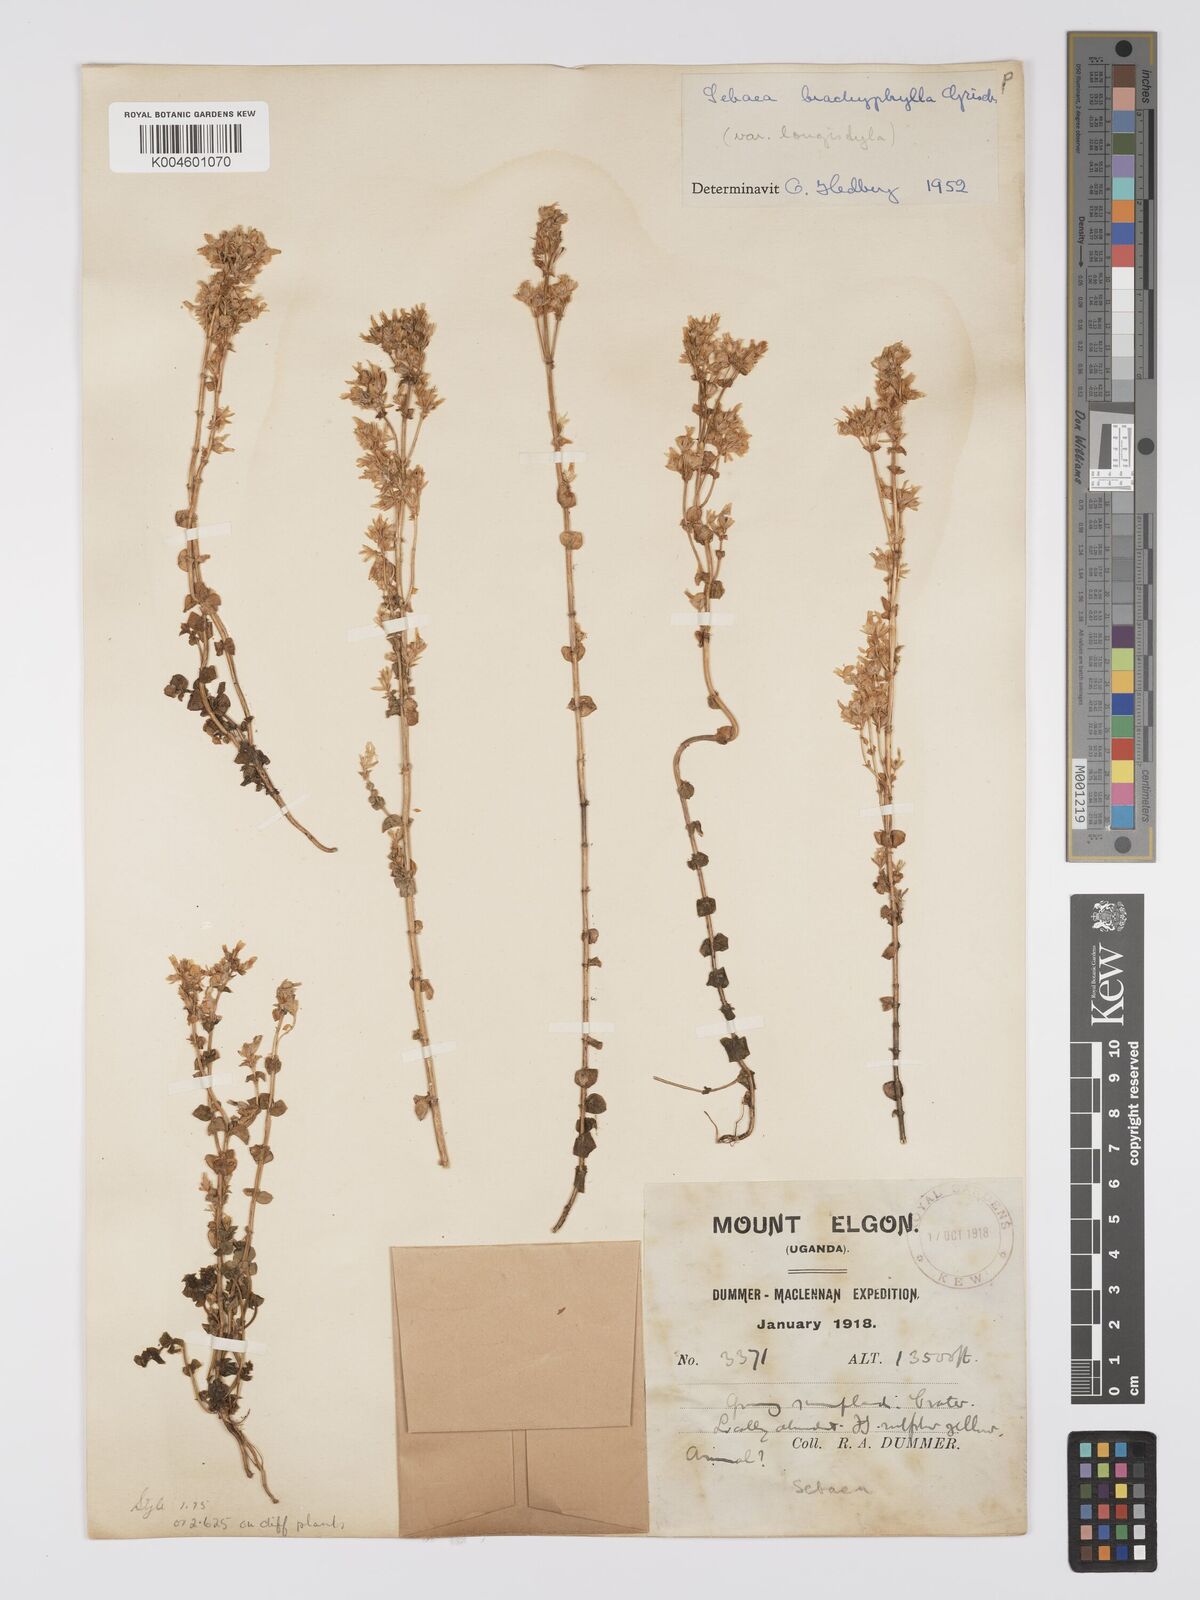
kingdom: Plantae
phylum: Tracheophyta
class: Magnoliopsida
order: Gentianales
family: Gentianaceae
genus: Sebaea
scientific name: Sebaea brachyphylla
